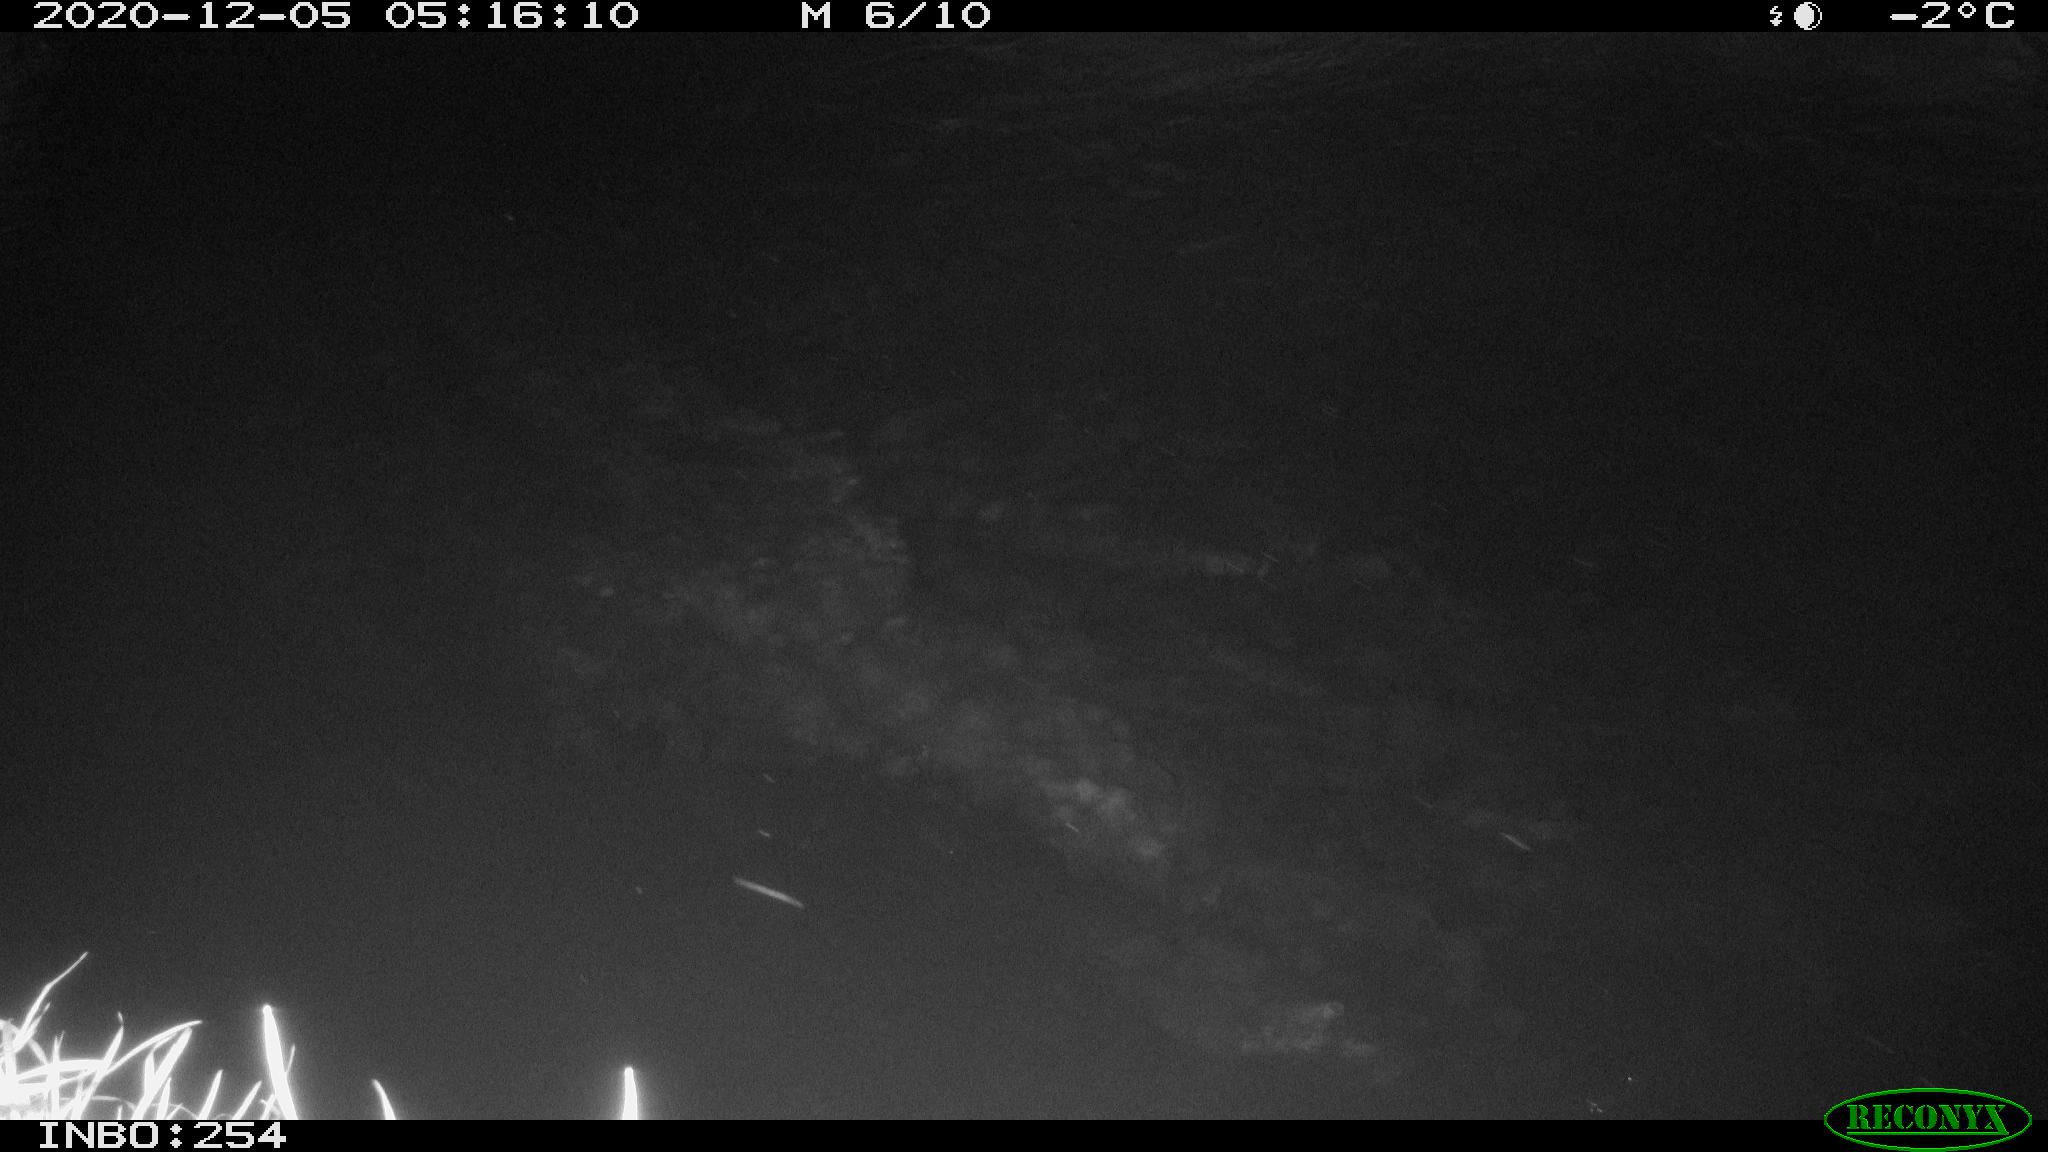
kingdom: Animalia
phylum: Chordata
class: Aves
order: Anseriformes
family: Anatidae
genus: Anas
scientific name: Anas platyrhynchos
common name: Mallard
